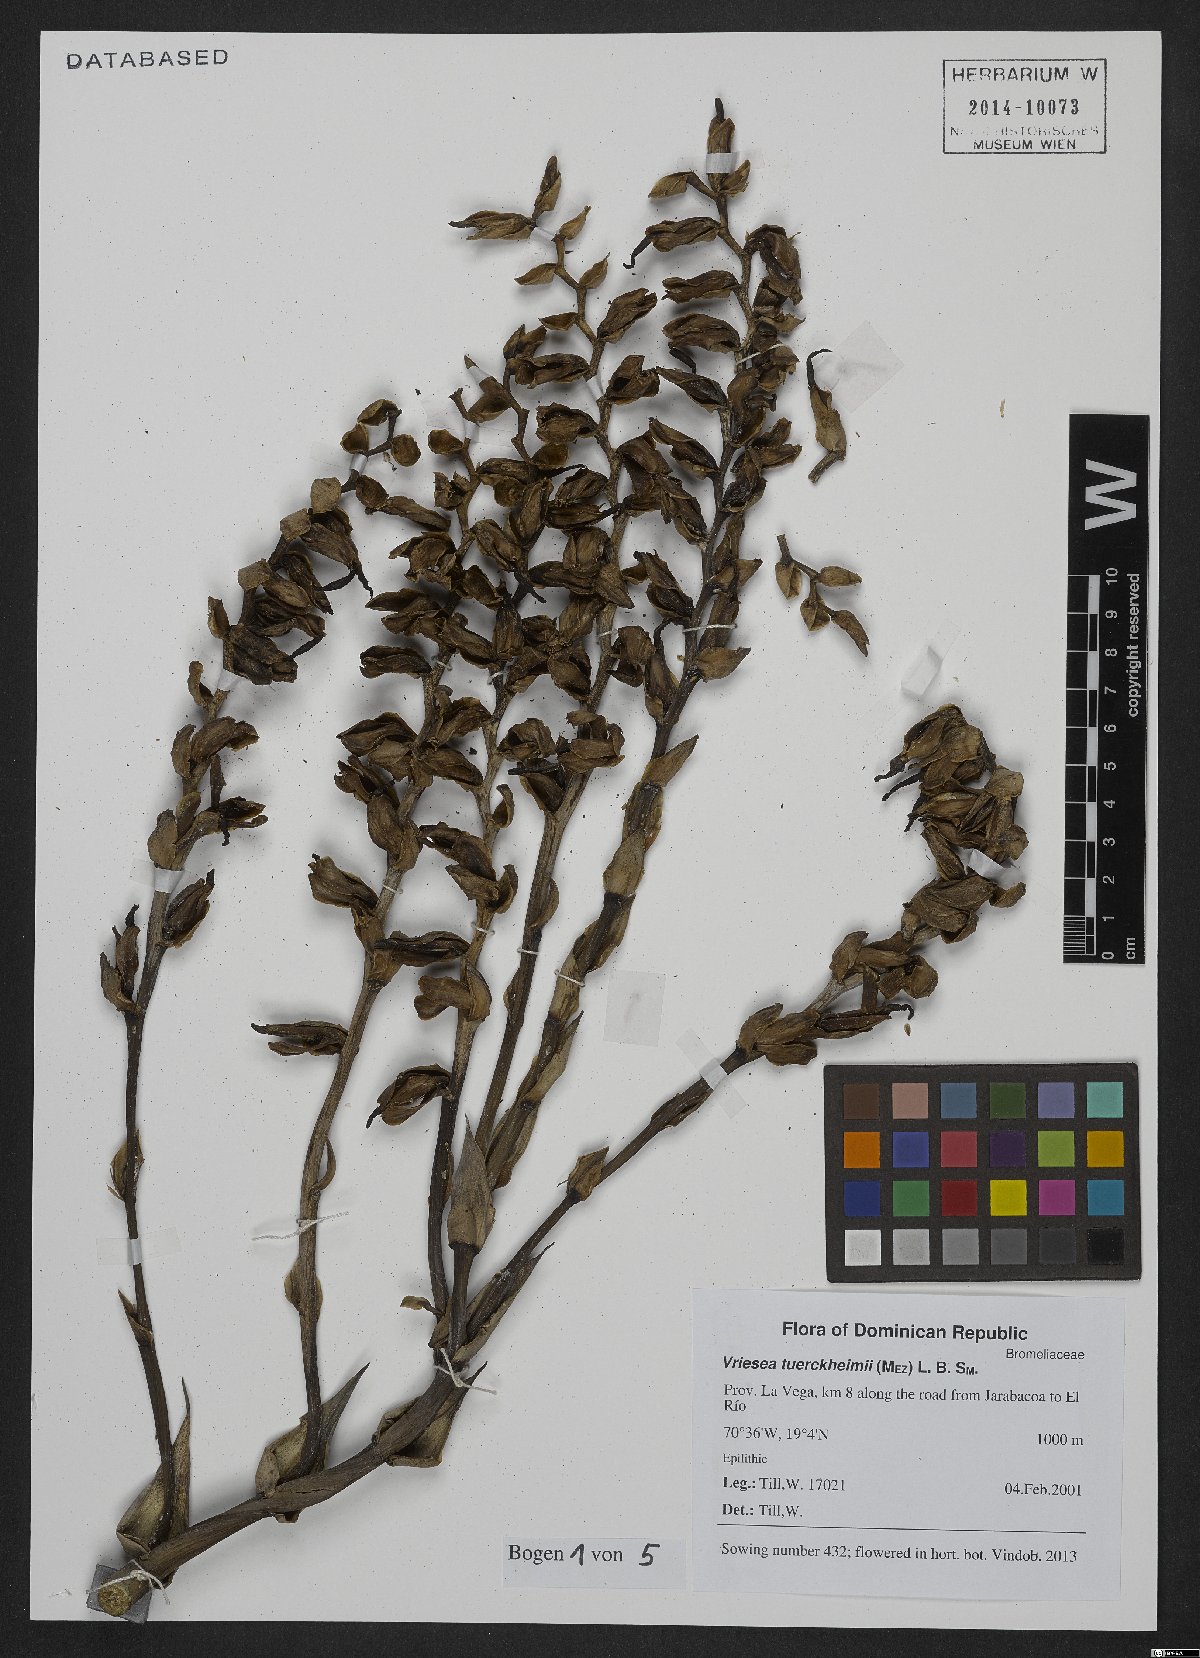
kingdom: Plantae
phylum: Tracheophyta
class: Liliopsida
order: Poales
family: Bromeliaceae
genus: Zizkaea
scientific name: Zizkaea tuerckheimii
